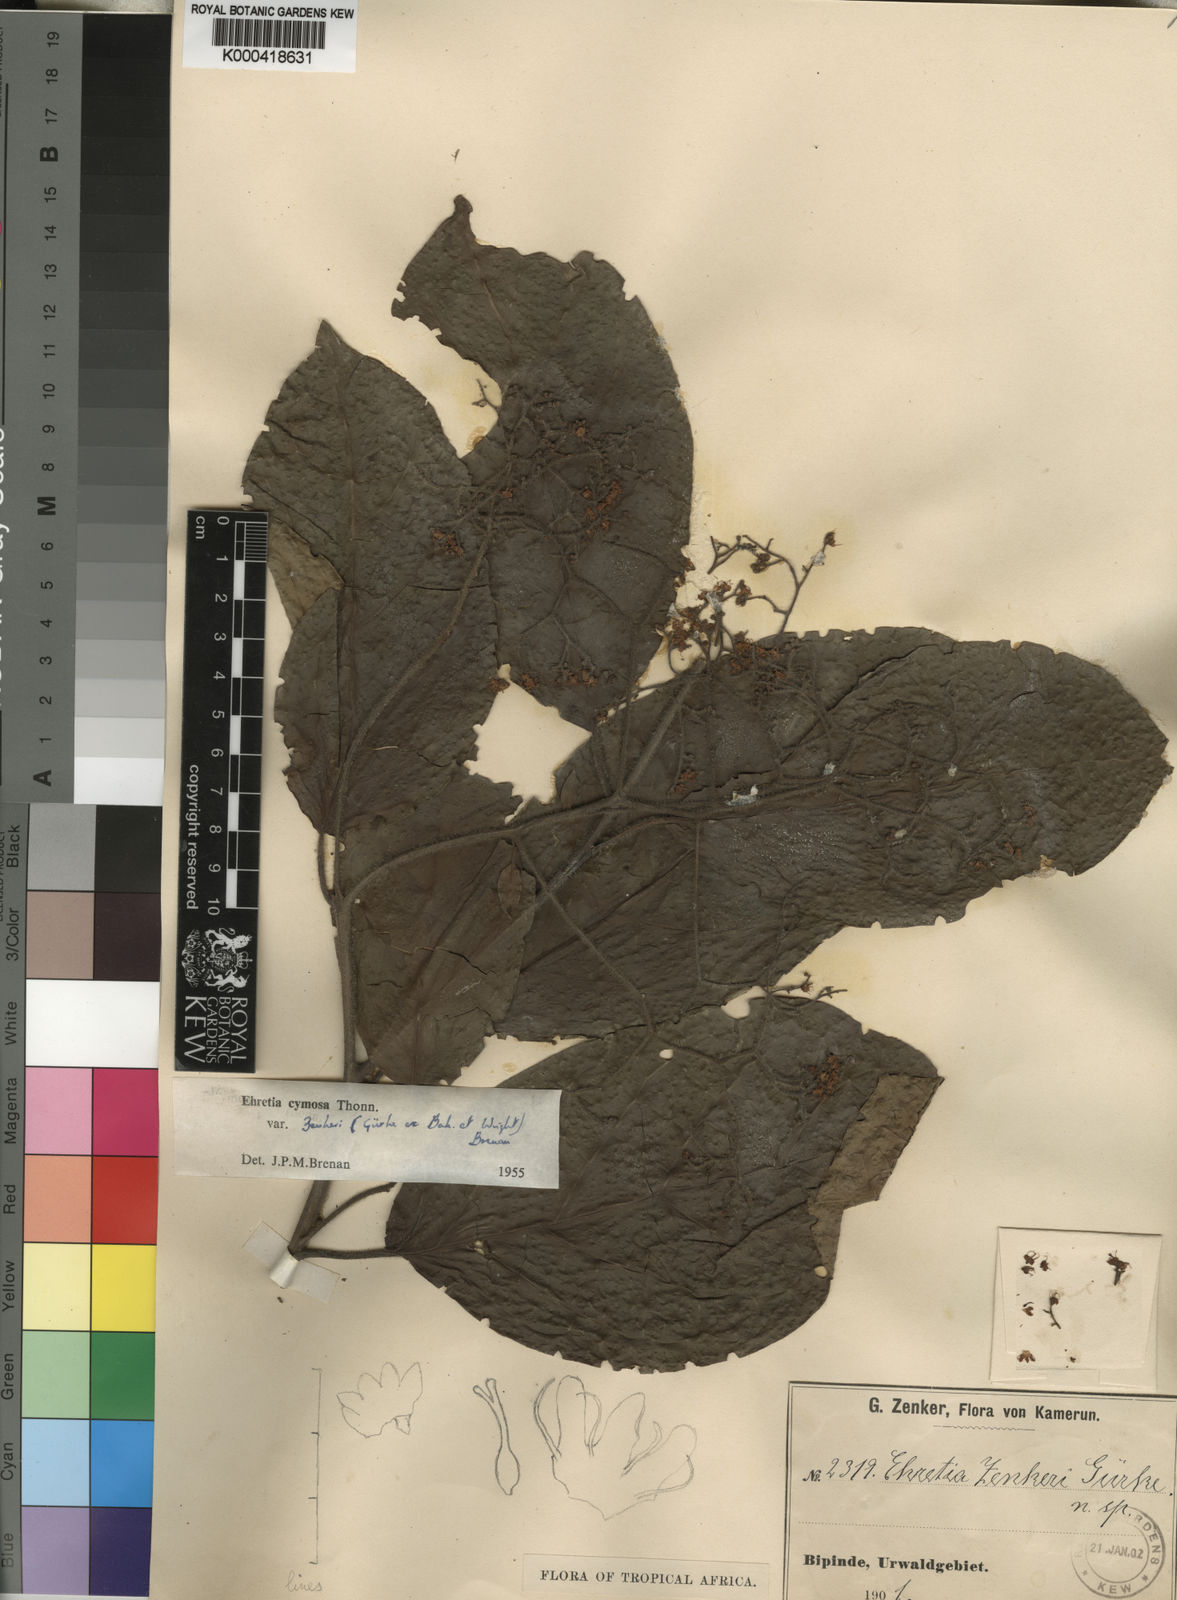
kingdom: Plantae
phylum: Tracheophyta
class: Magnoliopsida
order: Boraginales
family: Ehretiaceae
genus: Ehretia
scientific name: Ehretia cymosa
